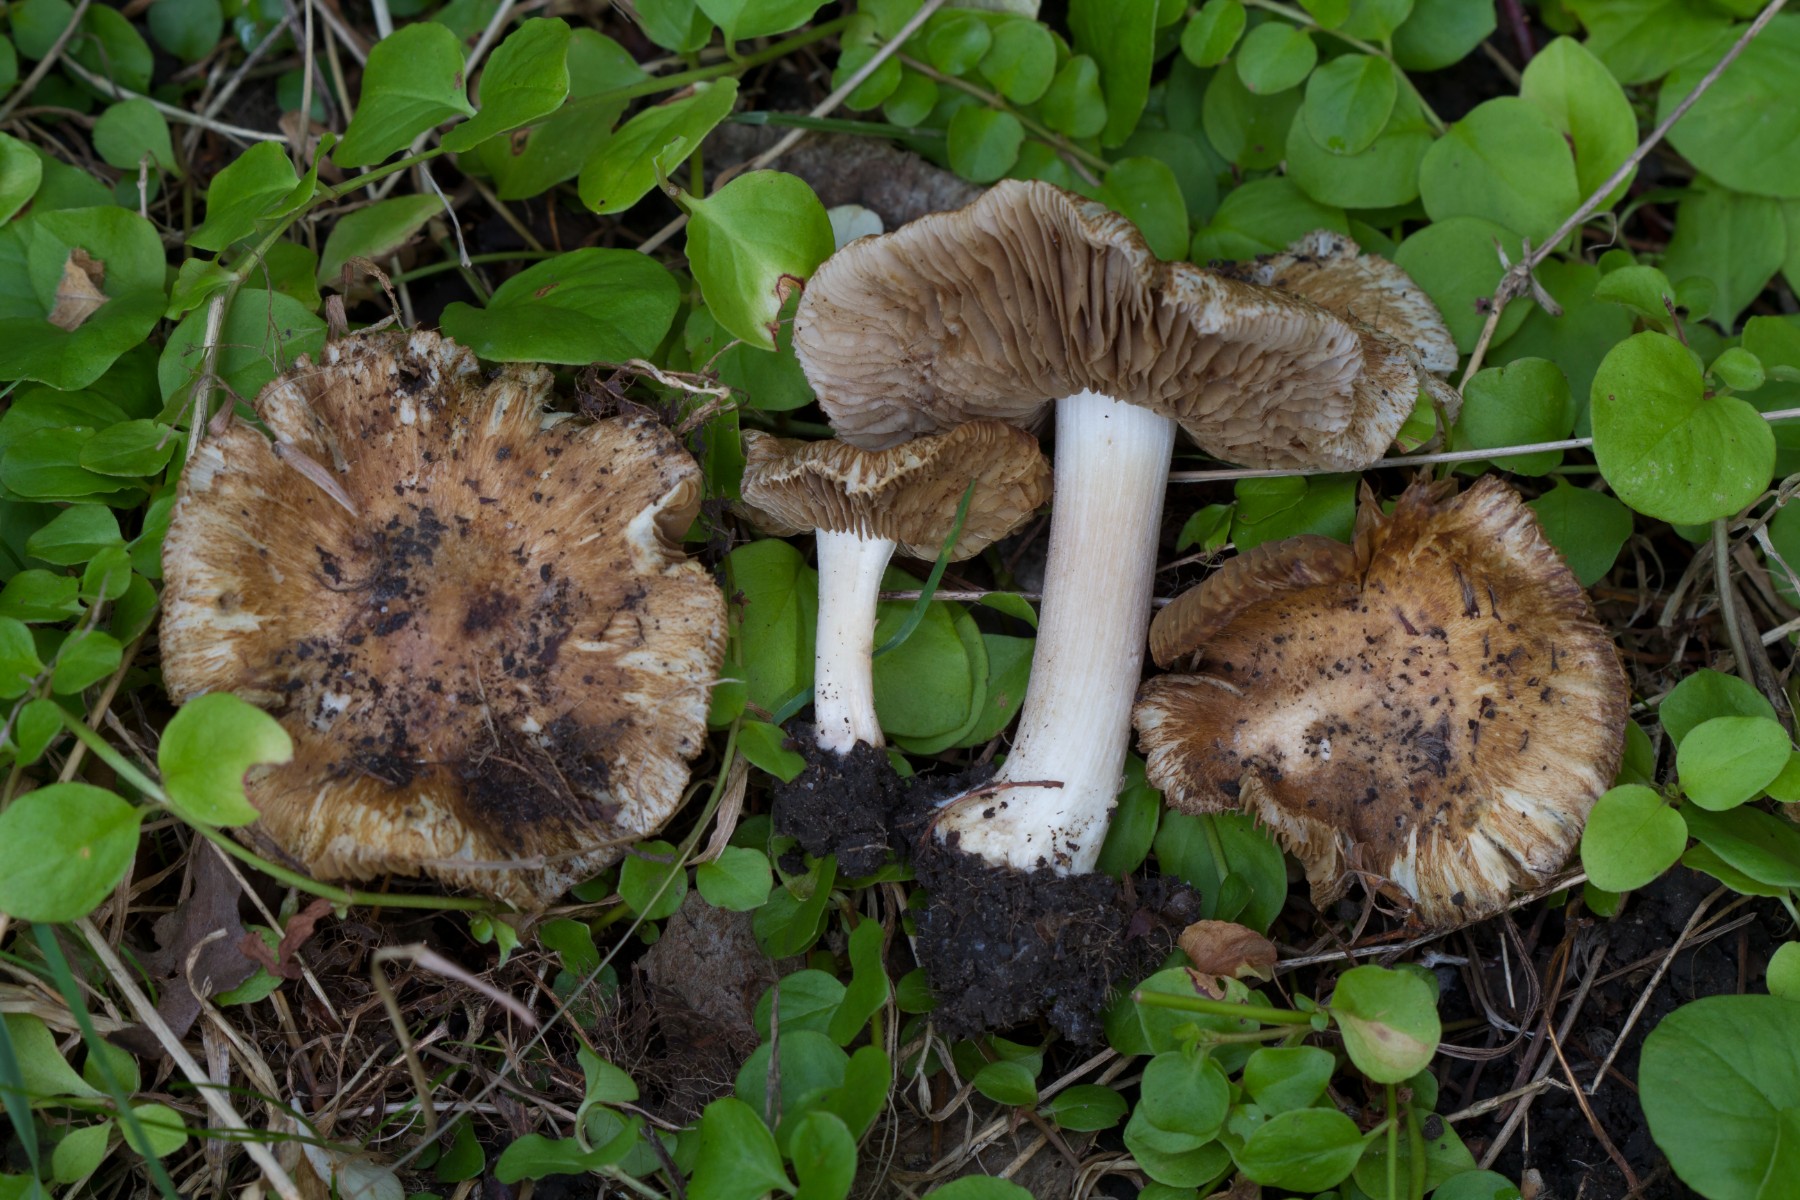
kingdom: Fungi
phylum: Basidiomycota
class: Agaricomycetes
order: Agaricales
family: Inocybaceae
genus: Inocybe
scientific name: Inocybe alluvionis
